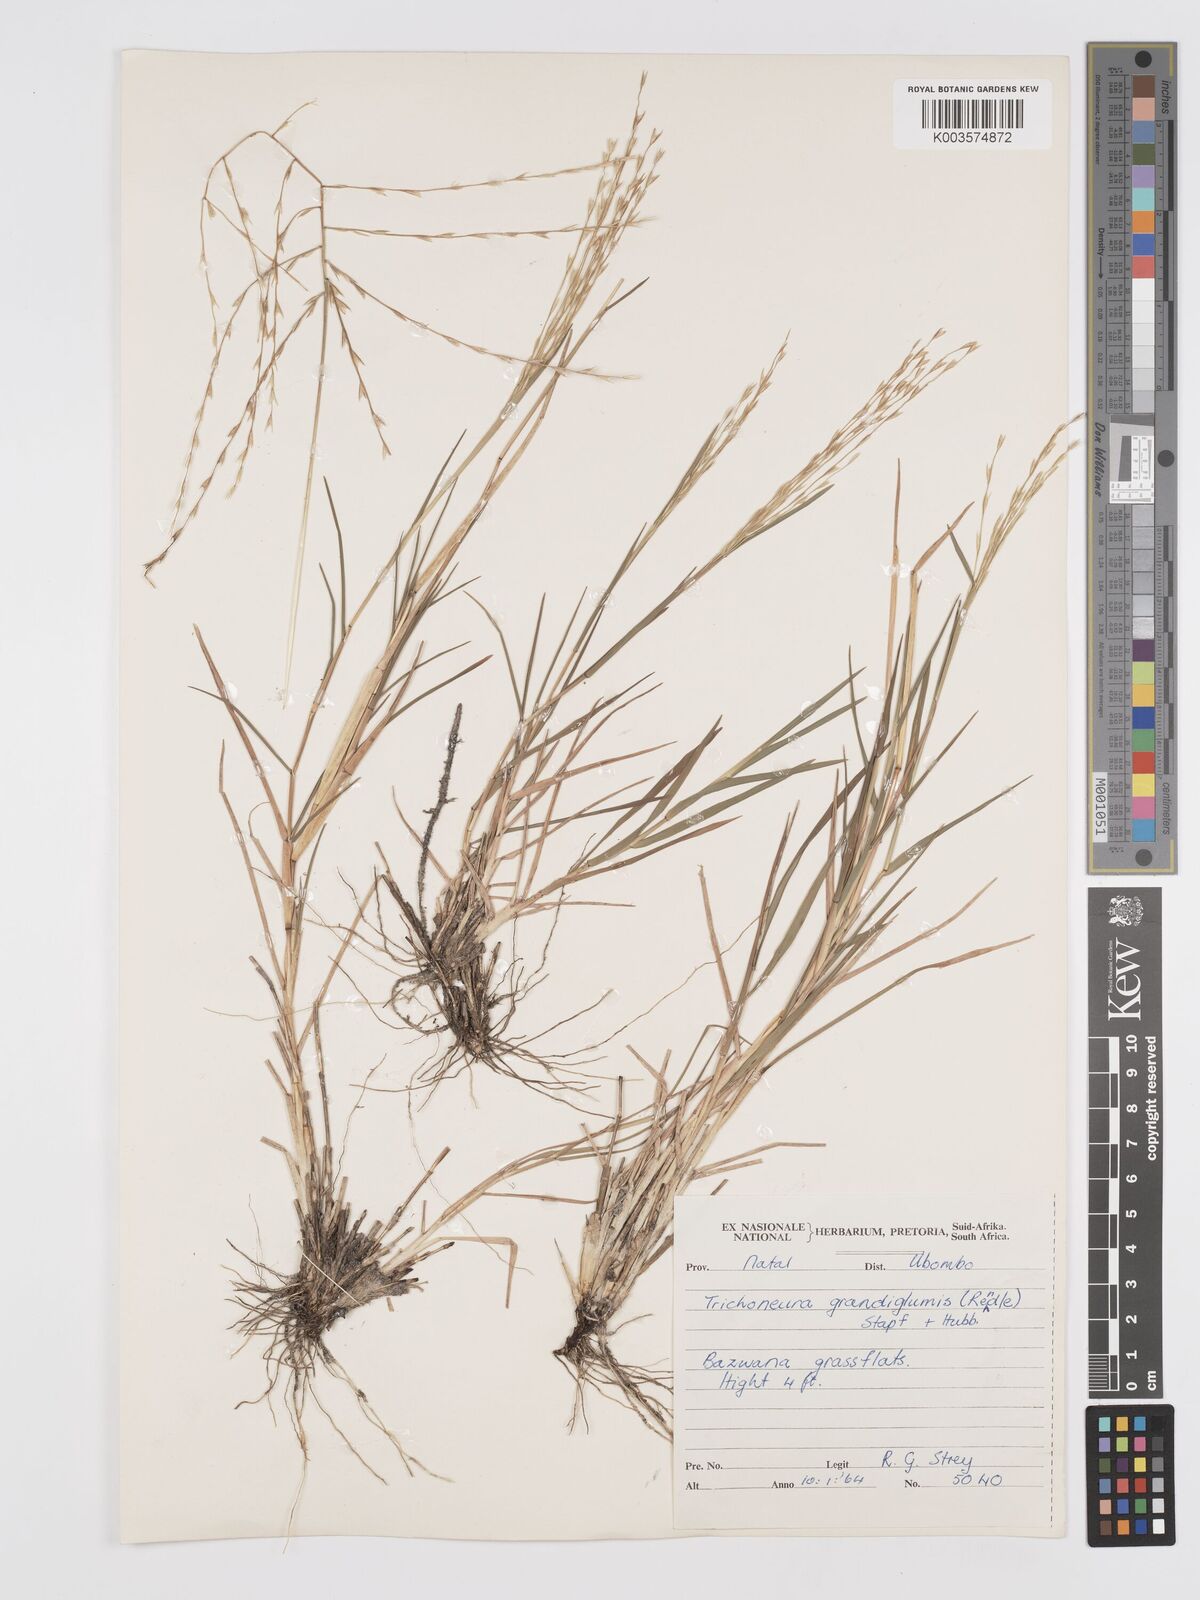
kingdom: Plantae
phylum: Tracheophyta
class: Liliopsida
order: Poales
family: Poaceae
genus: Trichoneura
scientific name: Trichoneura grandiglumis
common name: Rolling grass
